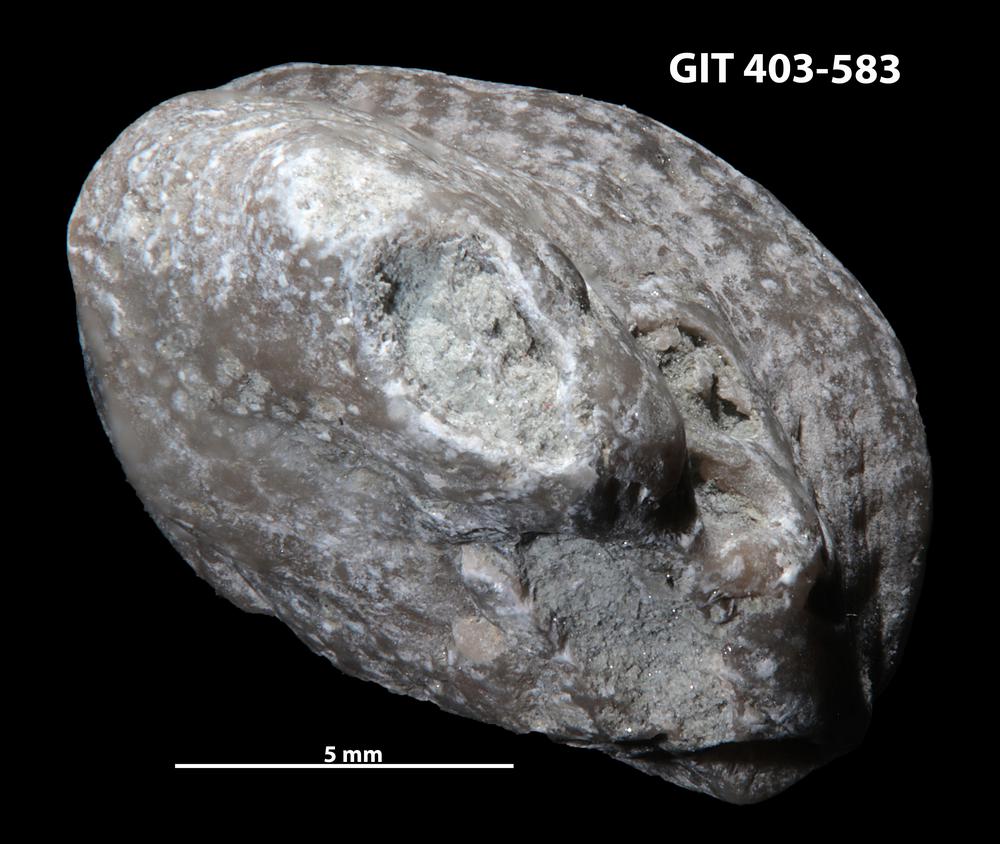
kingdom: Animalia
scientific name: Animalia
